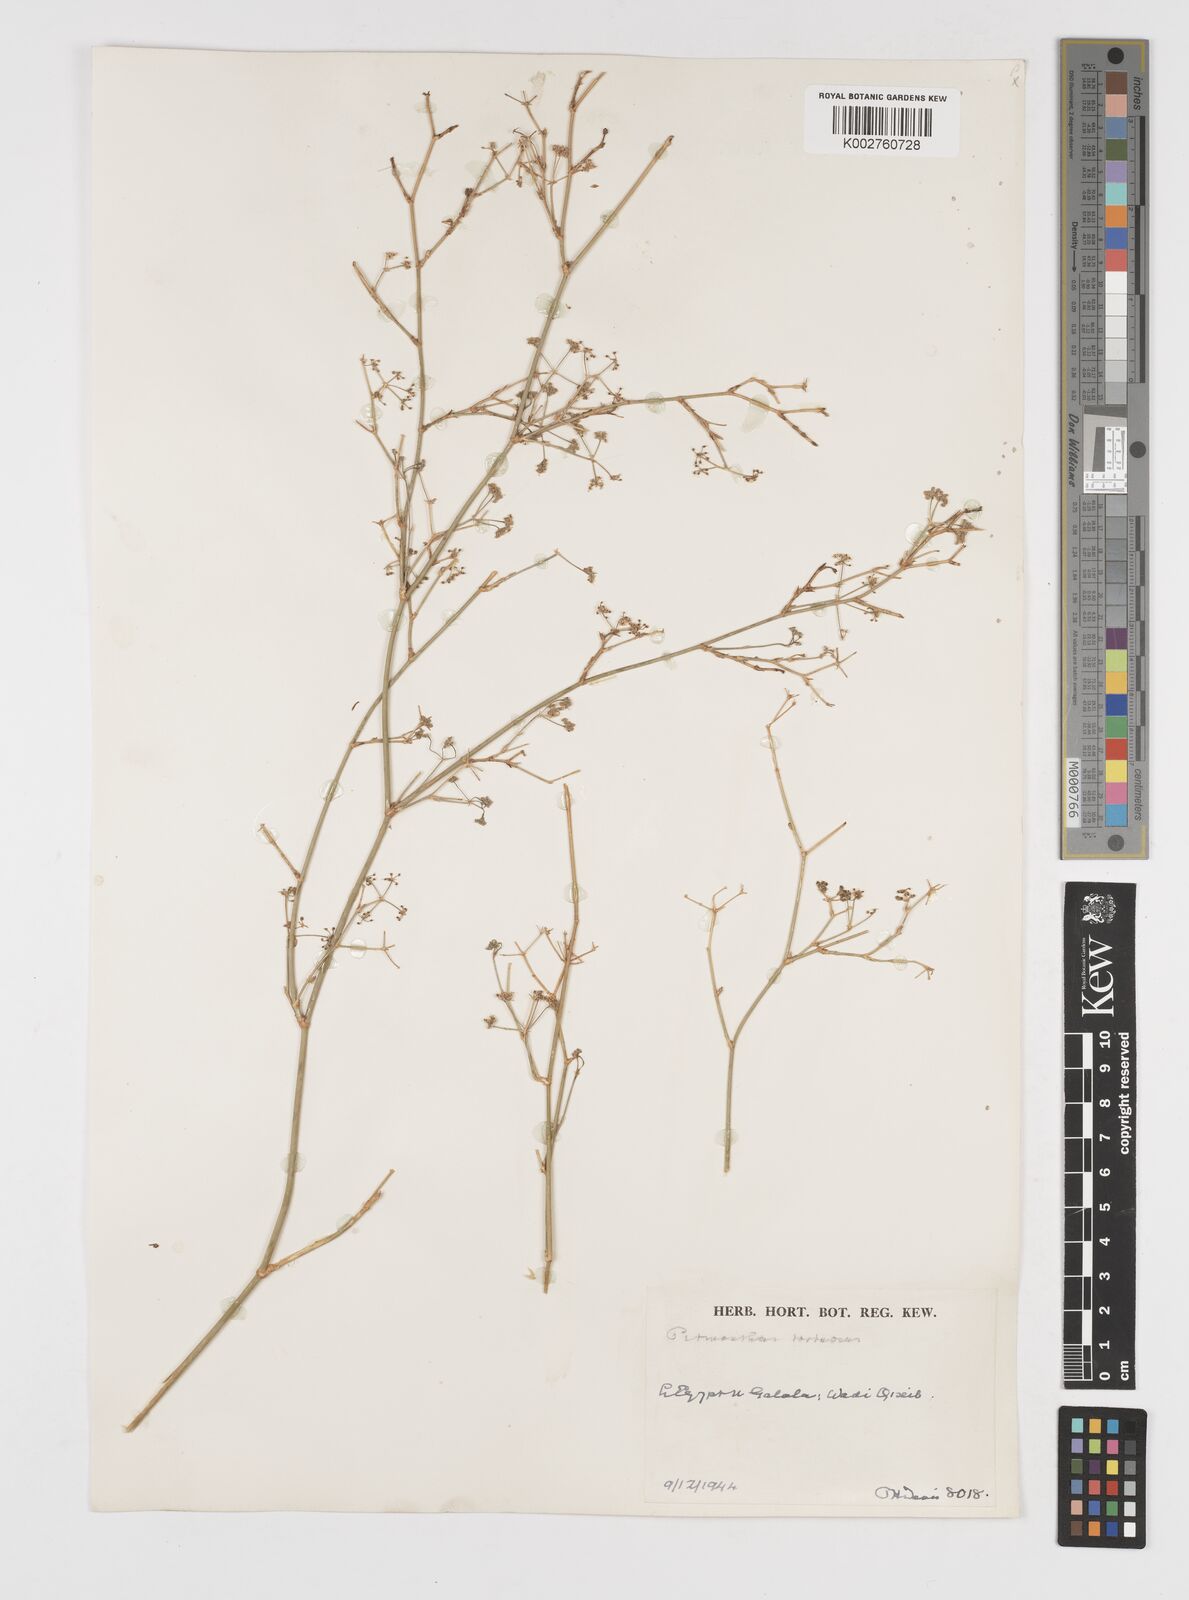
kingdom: Plantae
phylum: Tracheophyta
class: Magnoliopsida
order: Apiales
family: Apiaceae
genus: Deverra
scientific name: Deverra tortuosa
